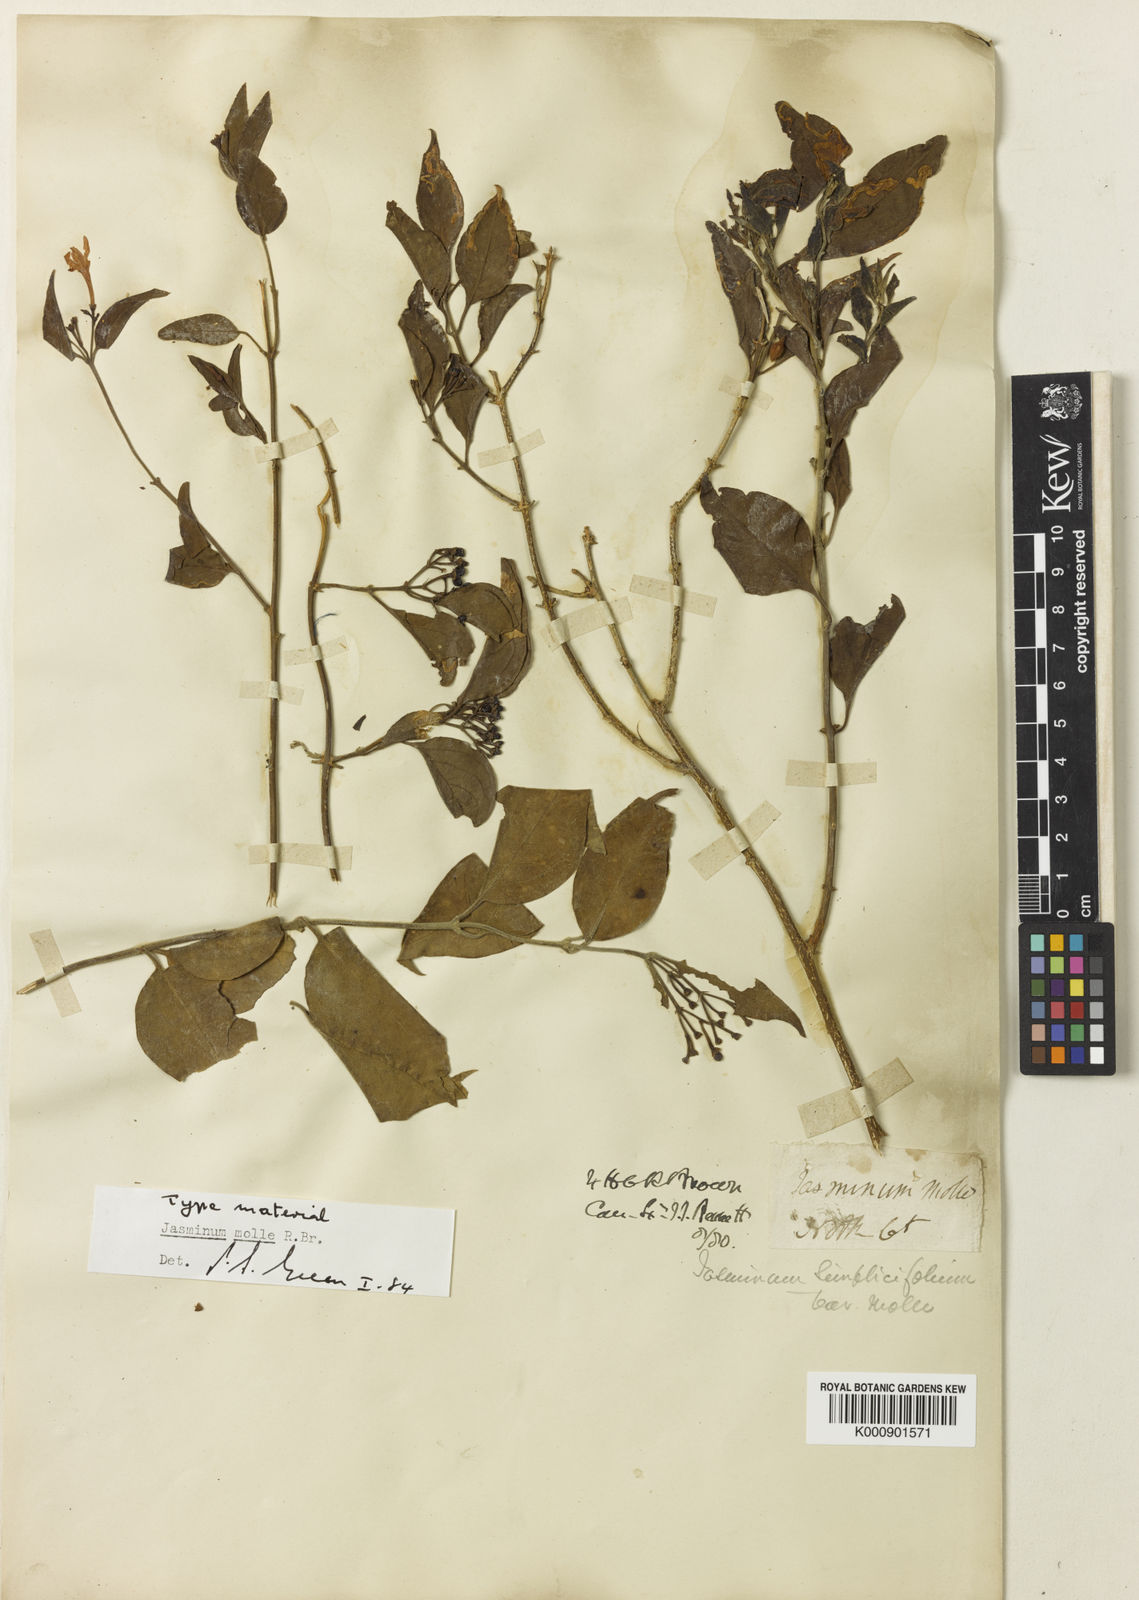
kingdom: Plantae
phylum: Tracheophyta
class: Magnoliopsida
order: Lamiales
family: Oleaceae
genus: Jasminum
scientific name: Jasminum molle
